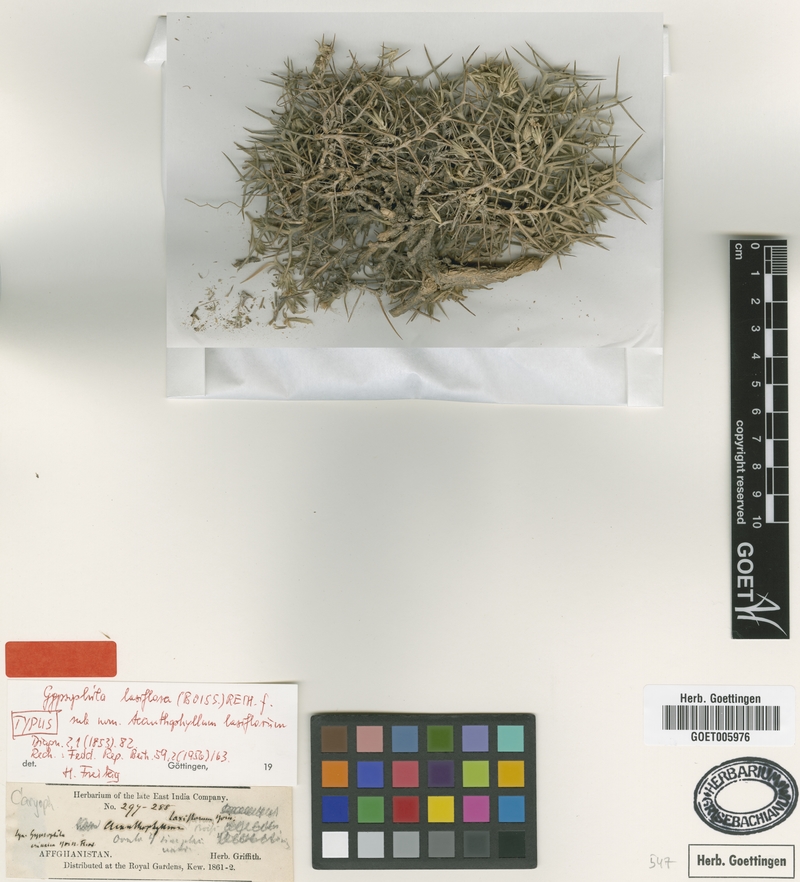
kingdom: Plantae
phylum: Tracheophyta
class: Magnoliopsida
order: Caryophyllales
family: Caryophyllaceae
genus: Acanthophyllum
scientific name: Acanthophyllum laxiflorum
